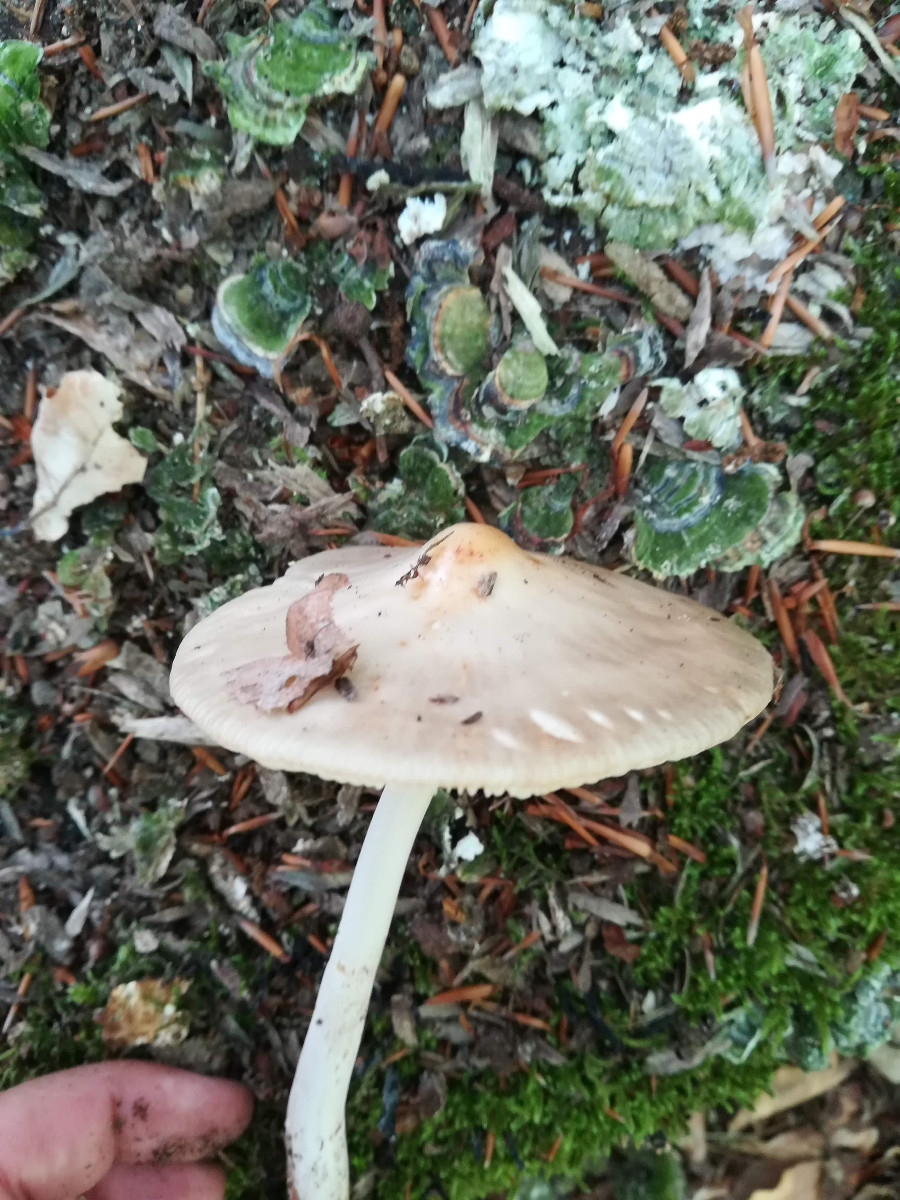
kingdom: Fungi
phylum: Basidiomycota
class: Agaricomycetes
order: Agaricales
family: Physalacriaceae
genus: Hymenopellis
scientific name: Hymenopellis radicata
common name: almindelig pælerodshat
